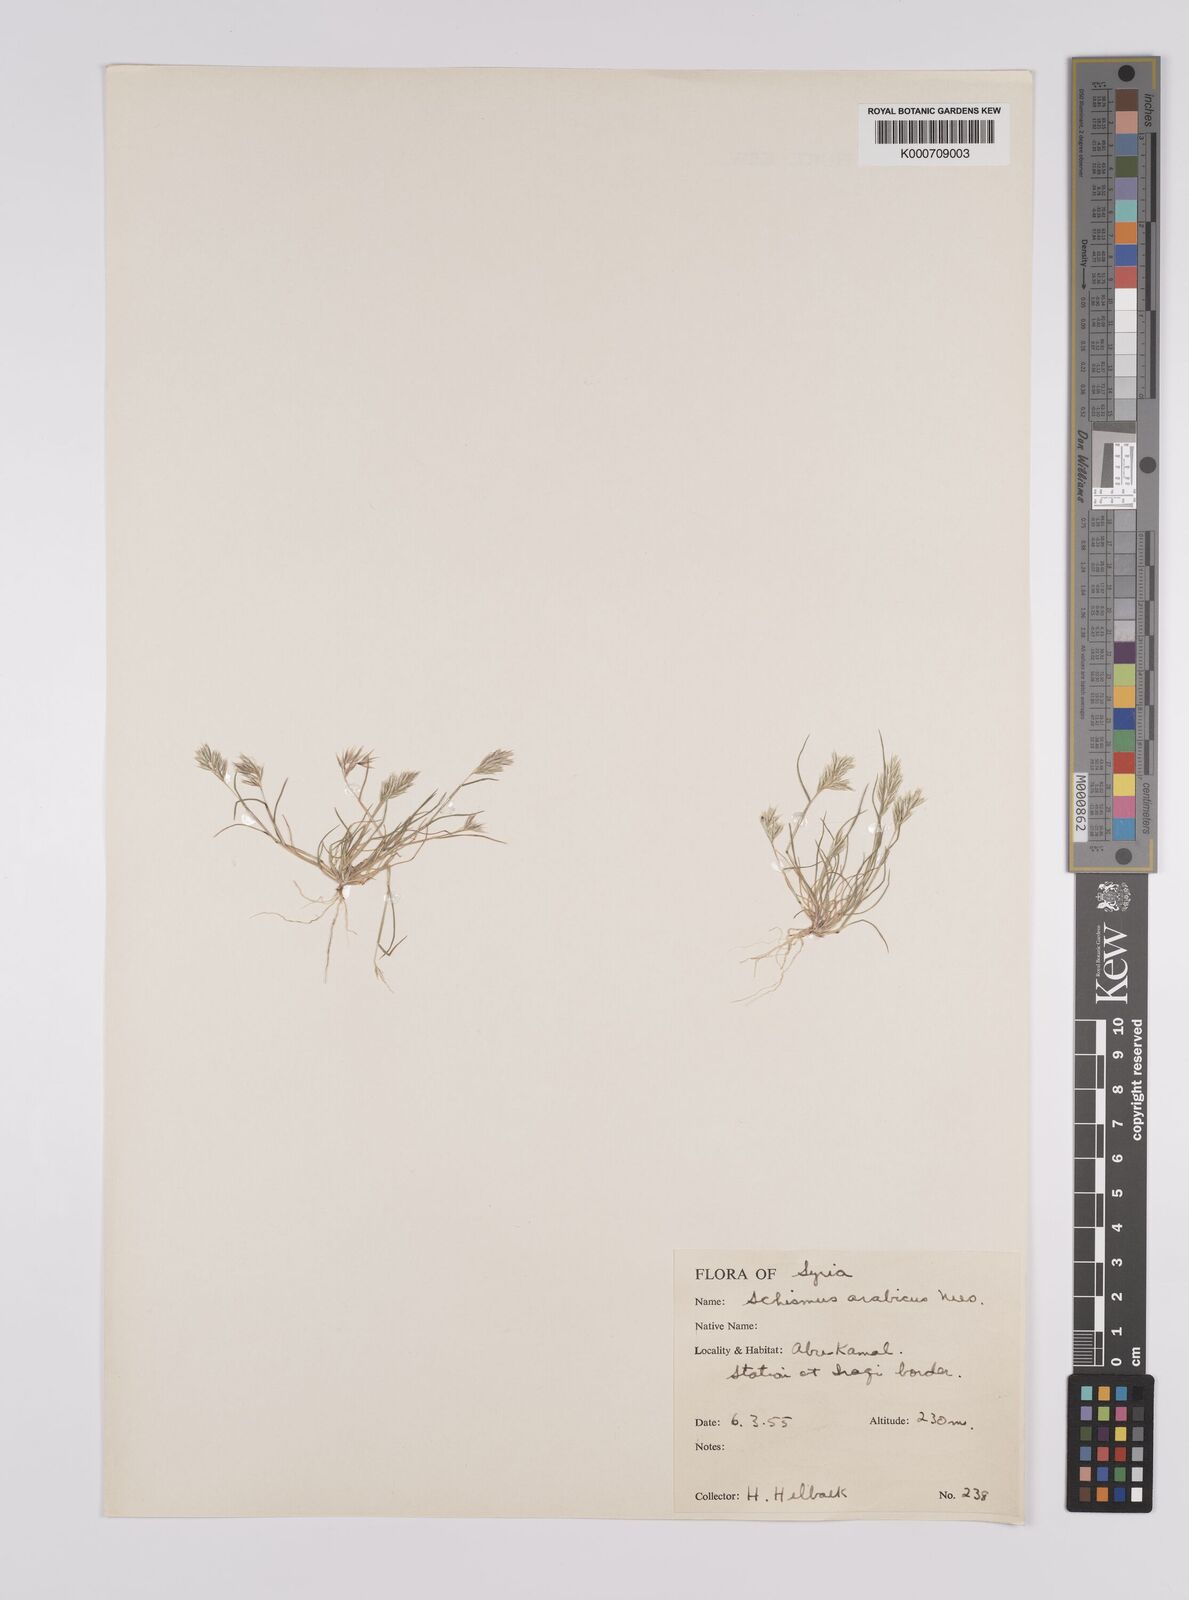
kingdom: Plantae
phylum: Tracheophyta
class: Liliopsida
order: Poales
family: Poaceae
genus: Schismus
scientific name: Schismus arabicus
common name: Arabian schismus
